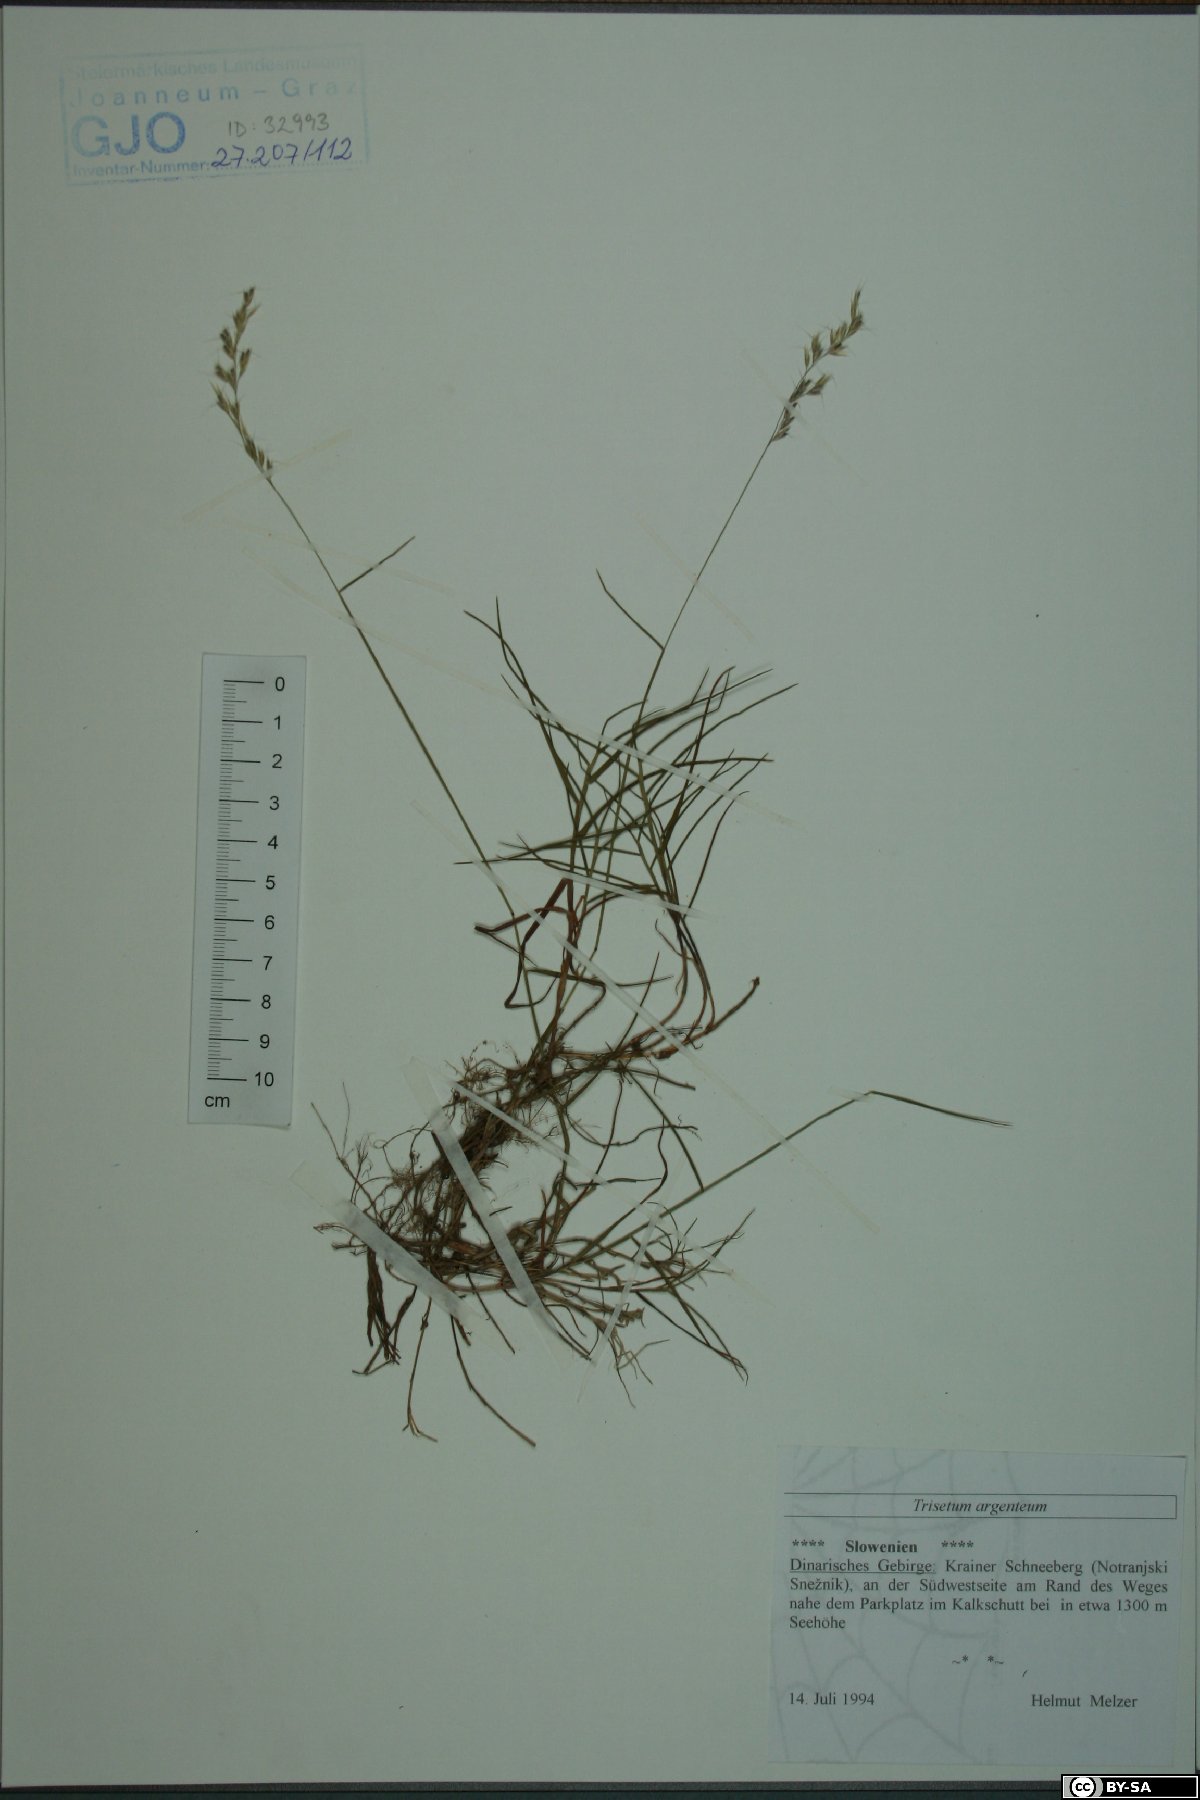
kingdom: Plantae
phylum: Tracheophyta
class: Liliopsida
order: Poales
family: Poaceae
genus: Trisetum
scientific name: Trisetum argenteum
